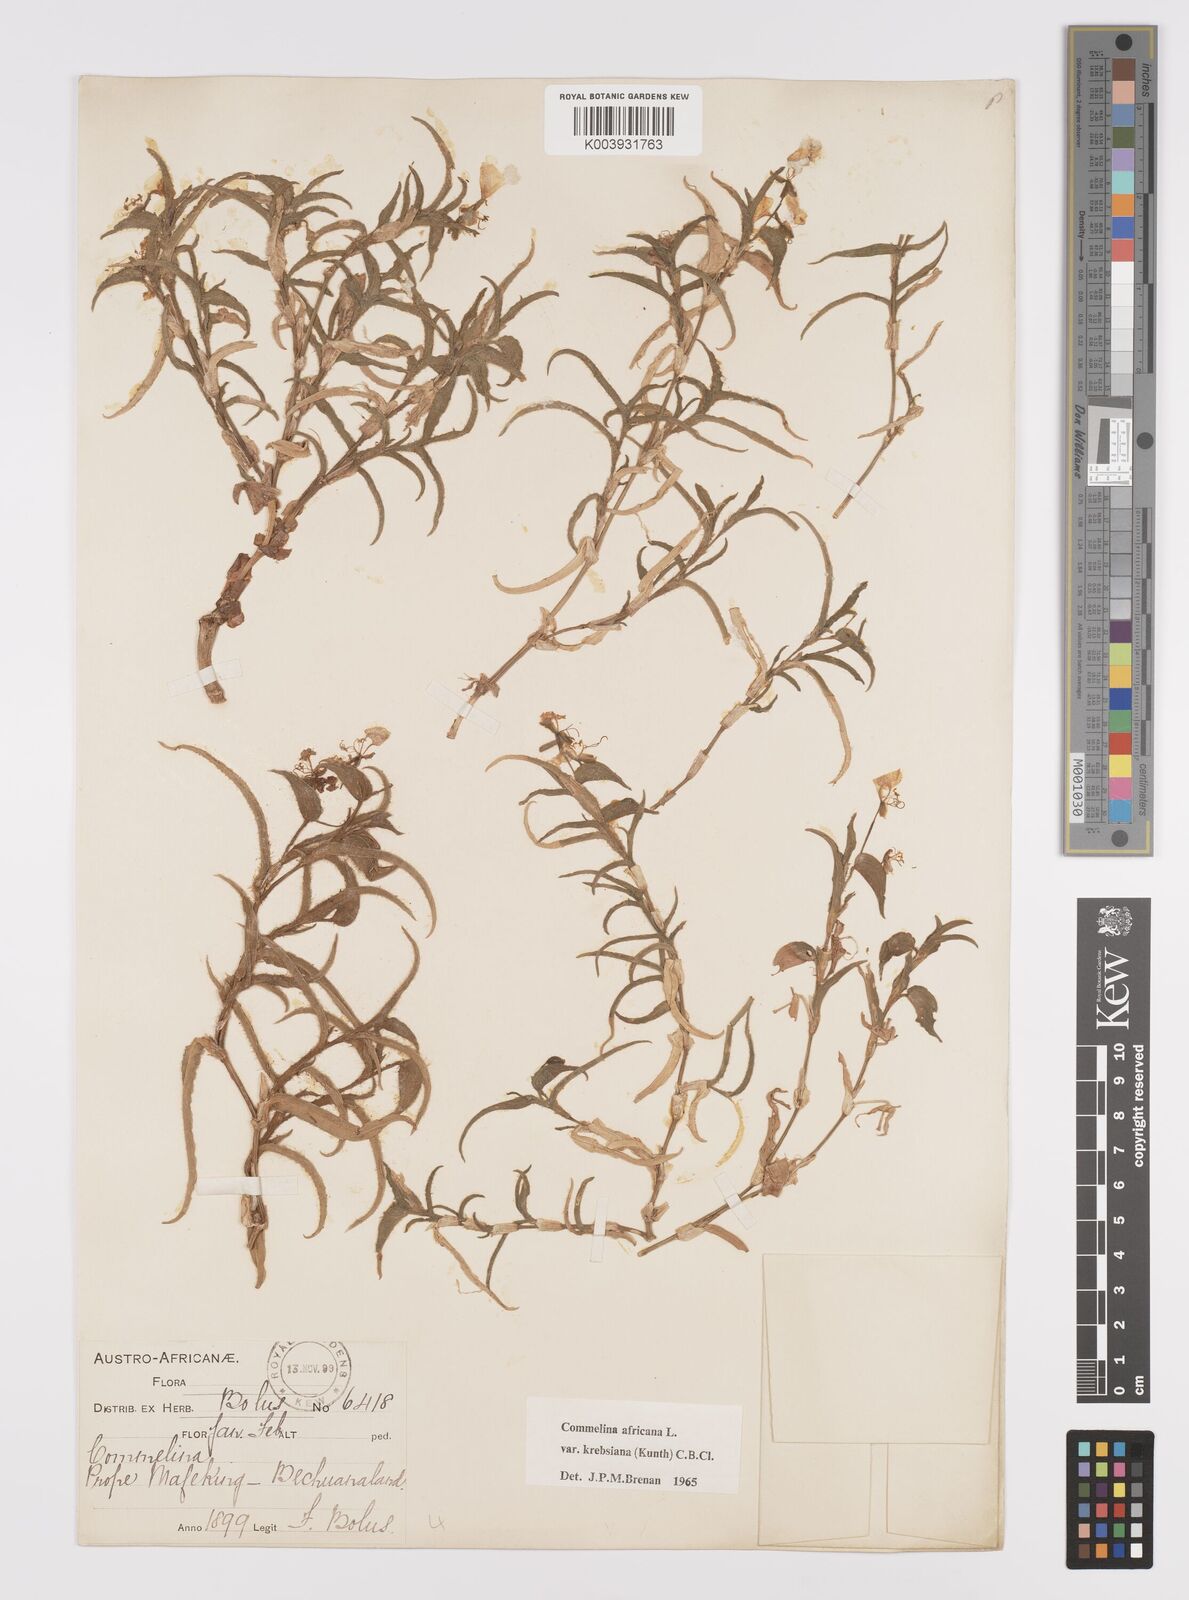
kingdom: Plantae
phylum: Tracheophyta
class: Liliopsida
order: Commelinales
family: Commelinaceae
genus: Commelina
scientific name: Commelina africana
